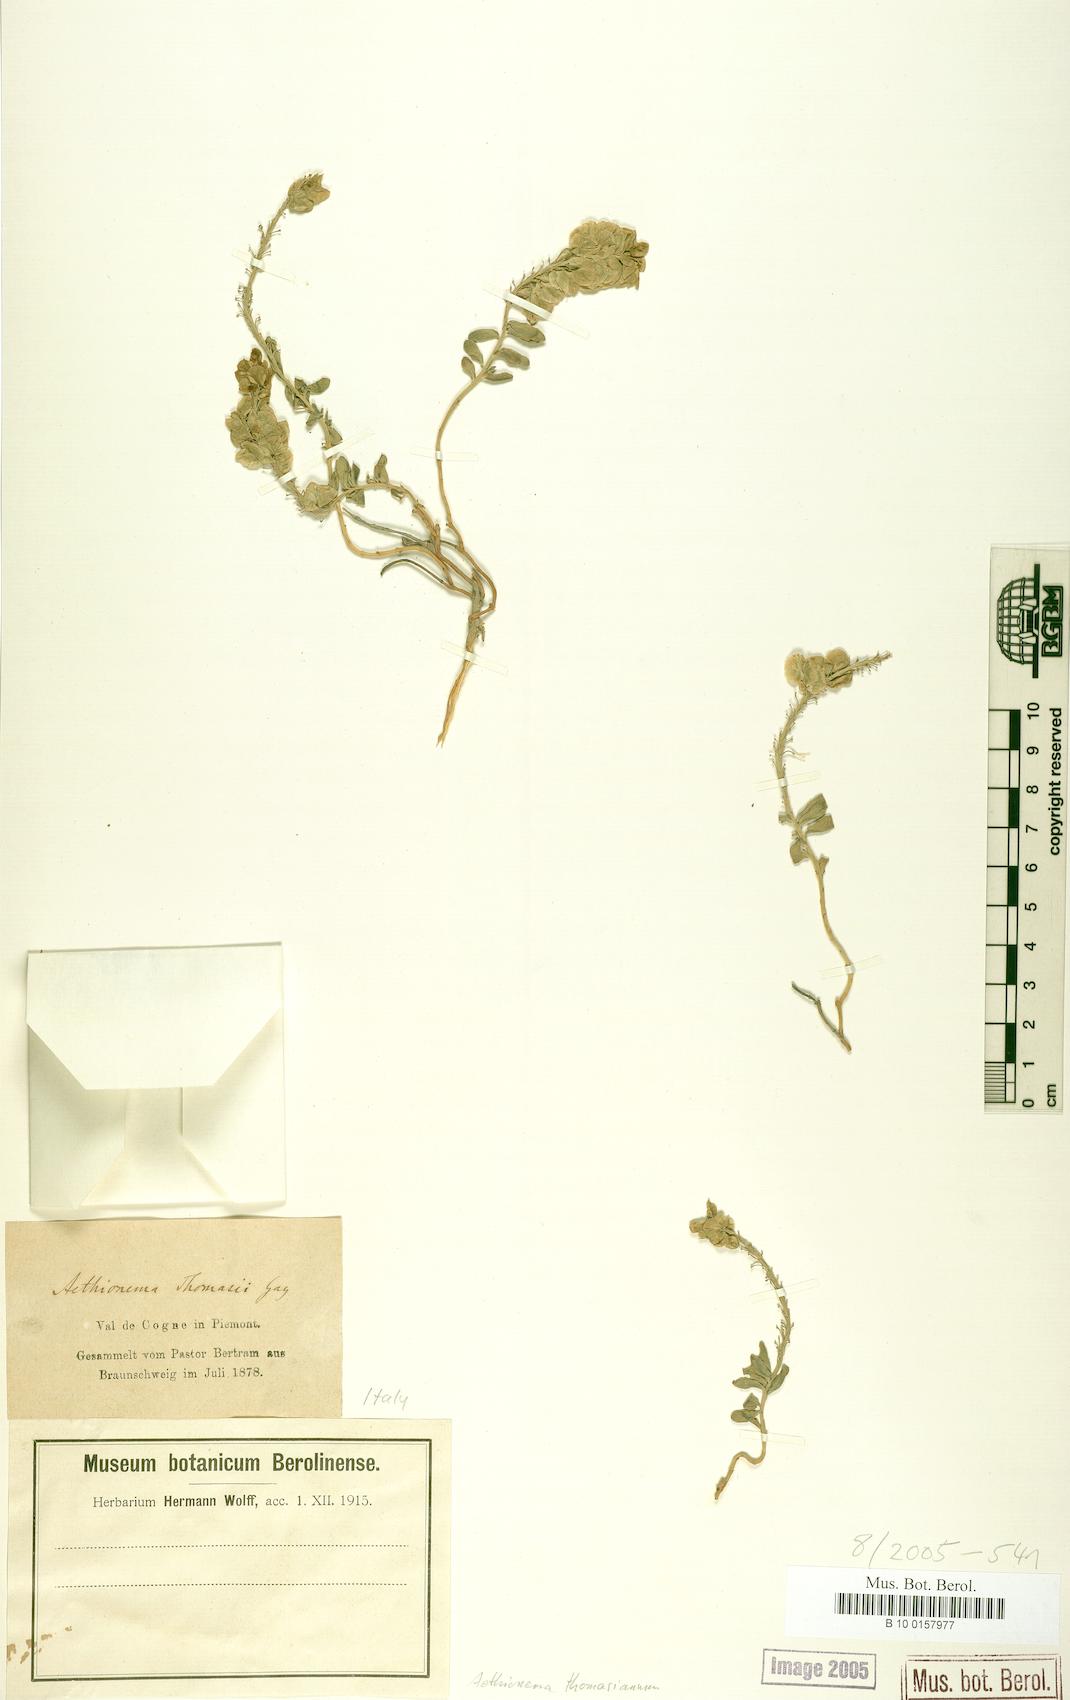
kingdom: Plantae
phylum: Tracheophyta
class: Magnoliopsida
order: Brassicales
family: Brassicaceae
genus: Aethionema
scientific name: Aethionema thomasianum
